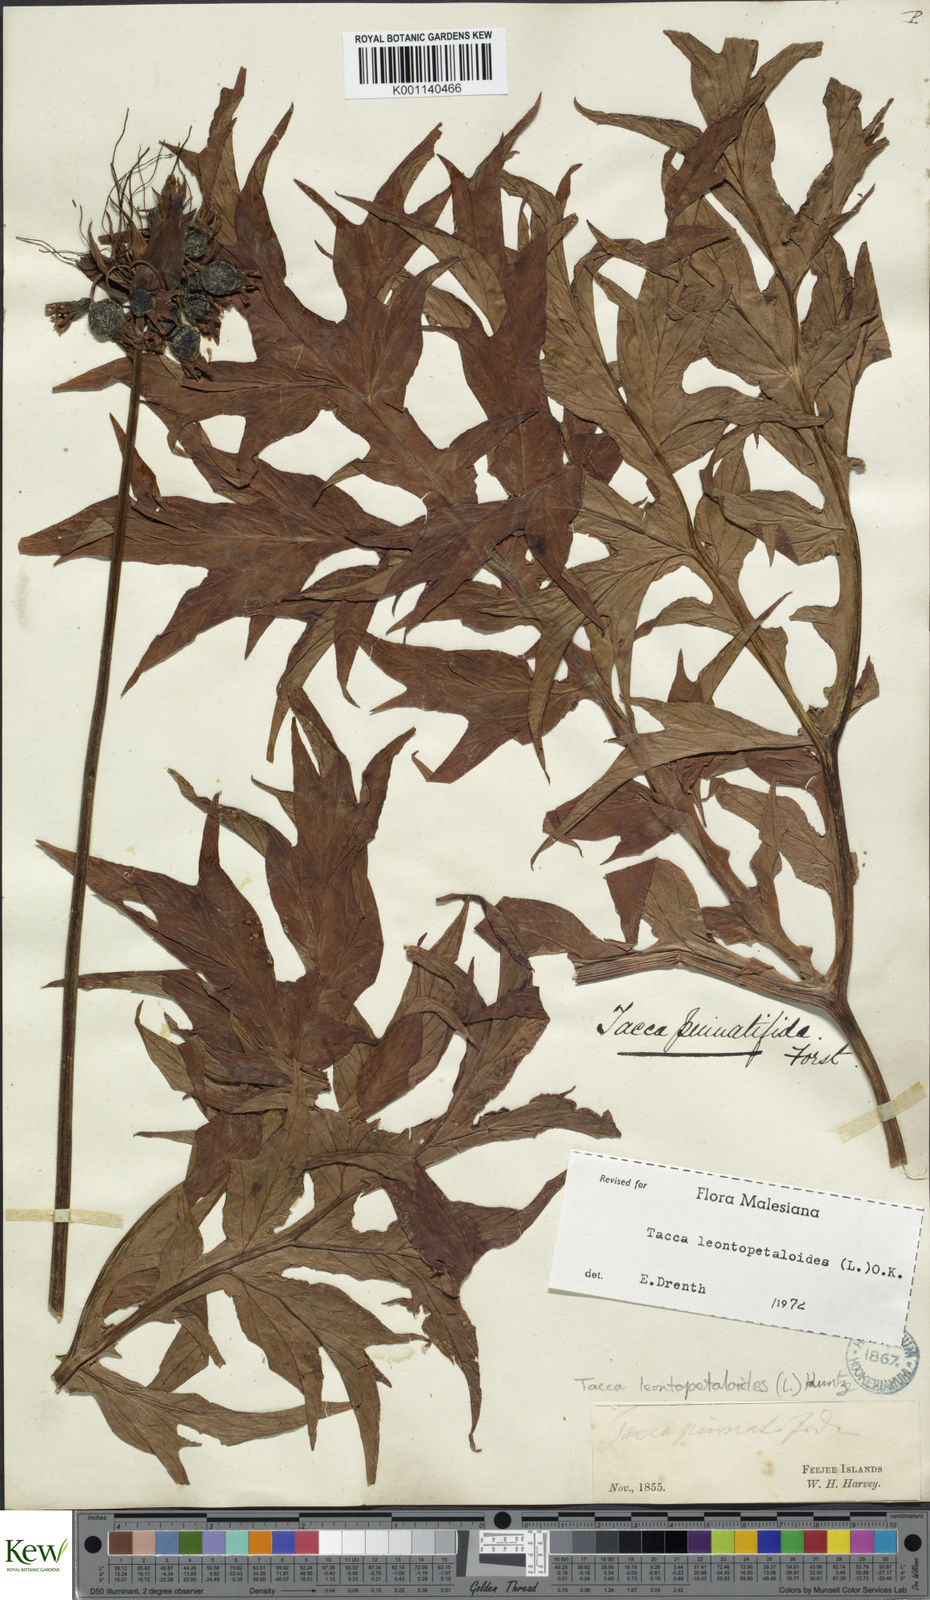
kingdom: Plantae
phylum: Tracheophyta
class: Liliopsida
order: Dioscoreales
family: Dioscoreaceae
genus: Tacca
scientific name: Tacca leontopetaloides
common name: Arrowroot
